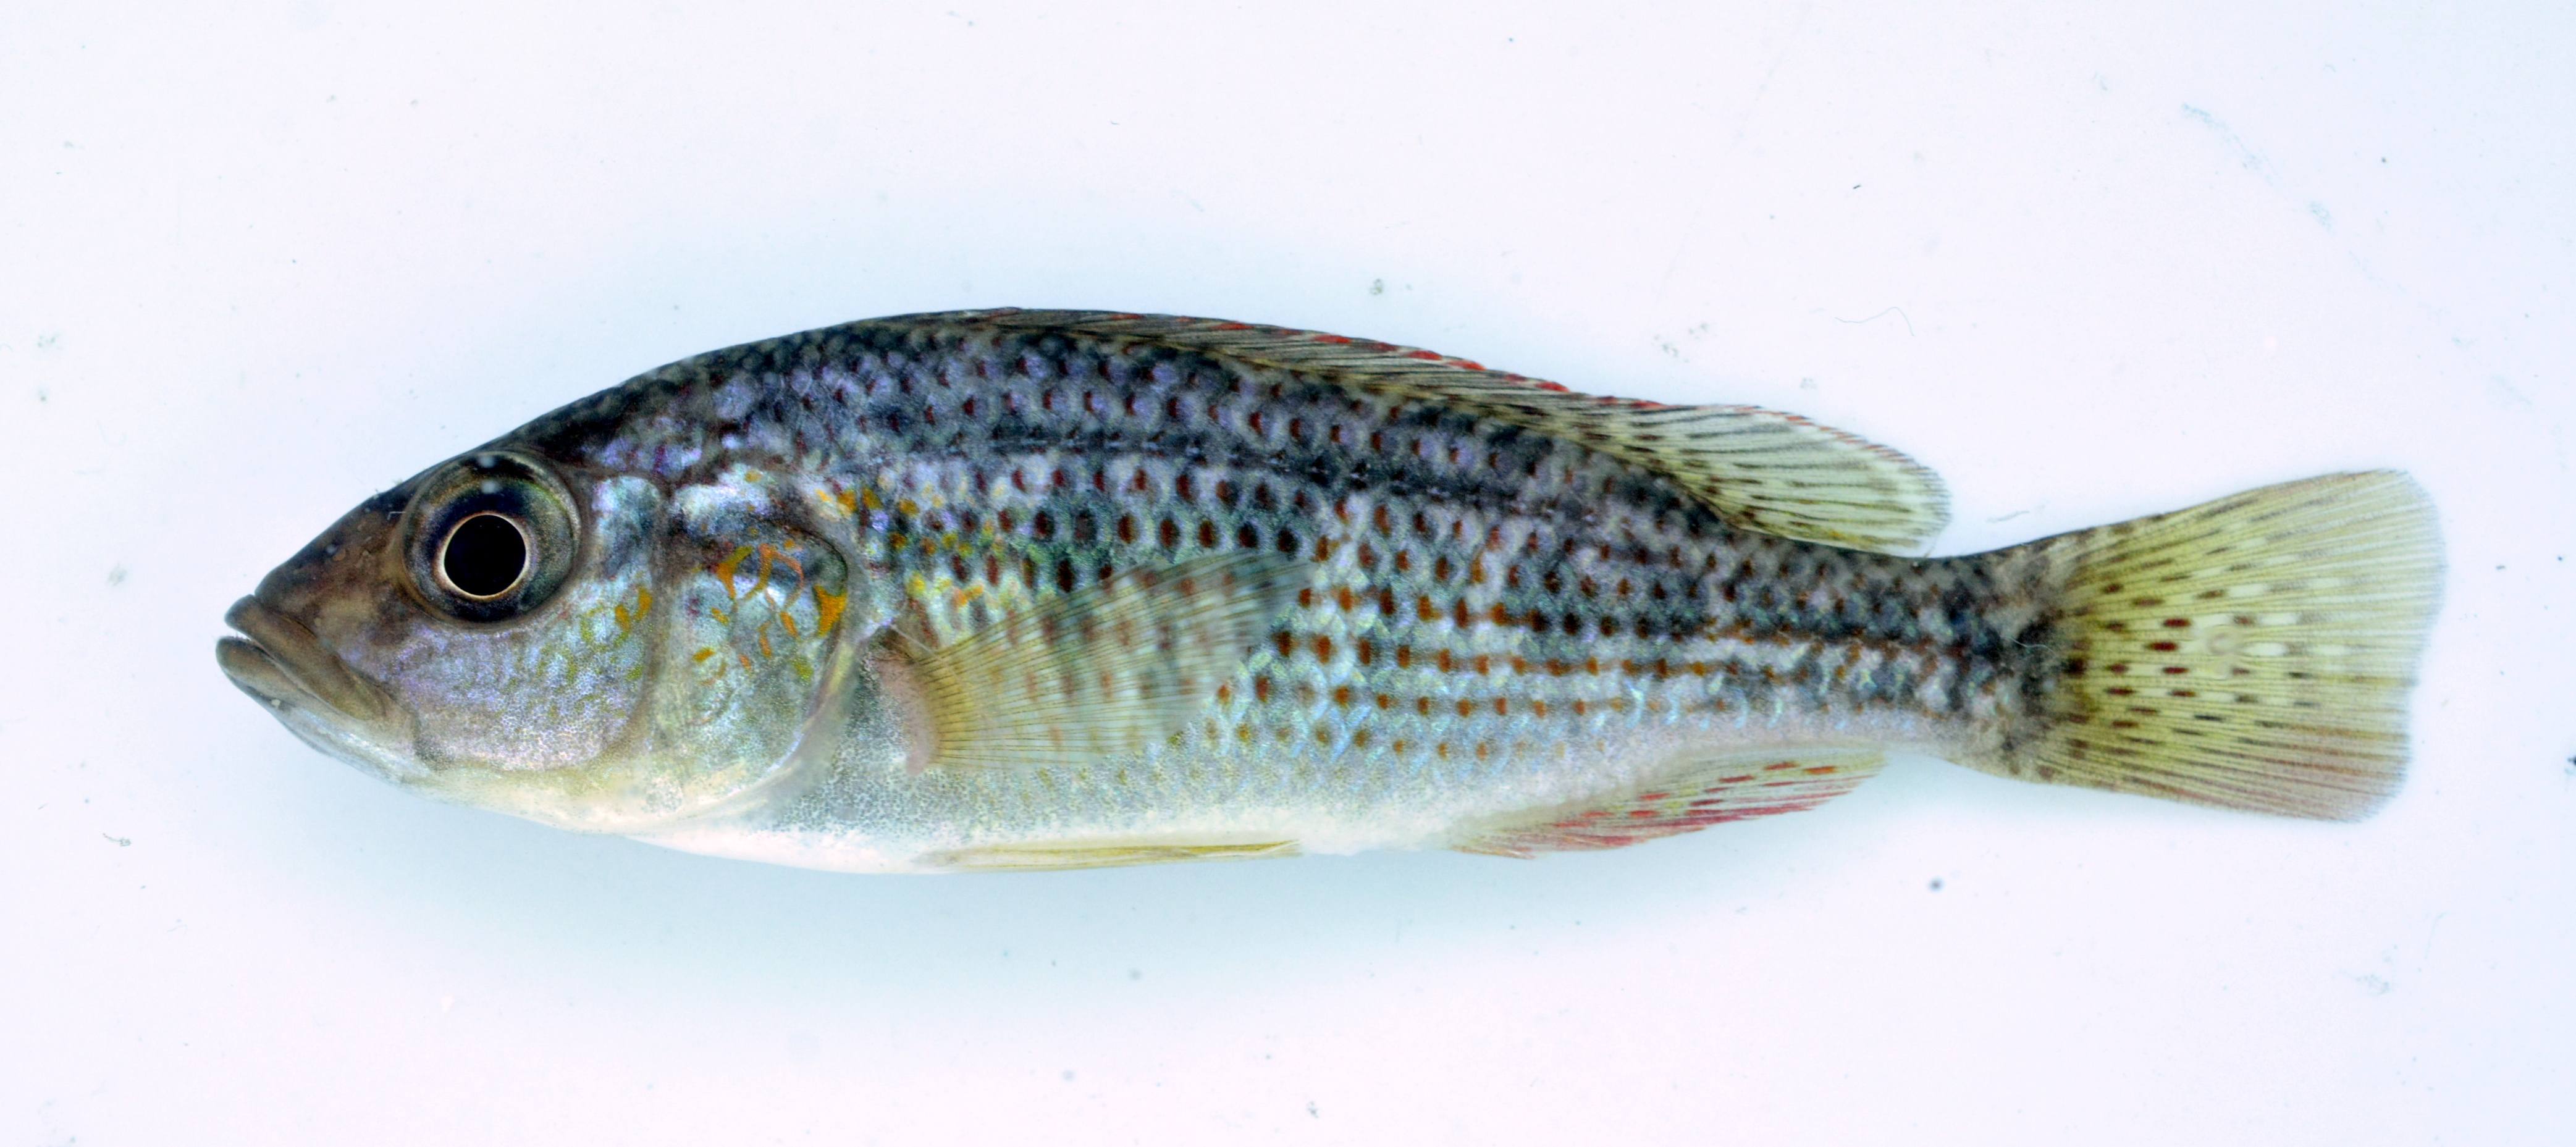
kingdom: Animalia
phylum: Chordata
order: Perciformes
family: Cichlidae
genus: Pharyngochromis
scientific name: Pharyngochromis acuticeps
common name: Zambezi happy
